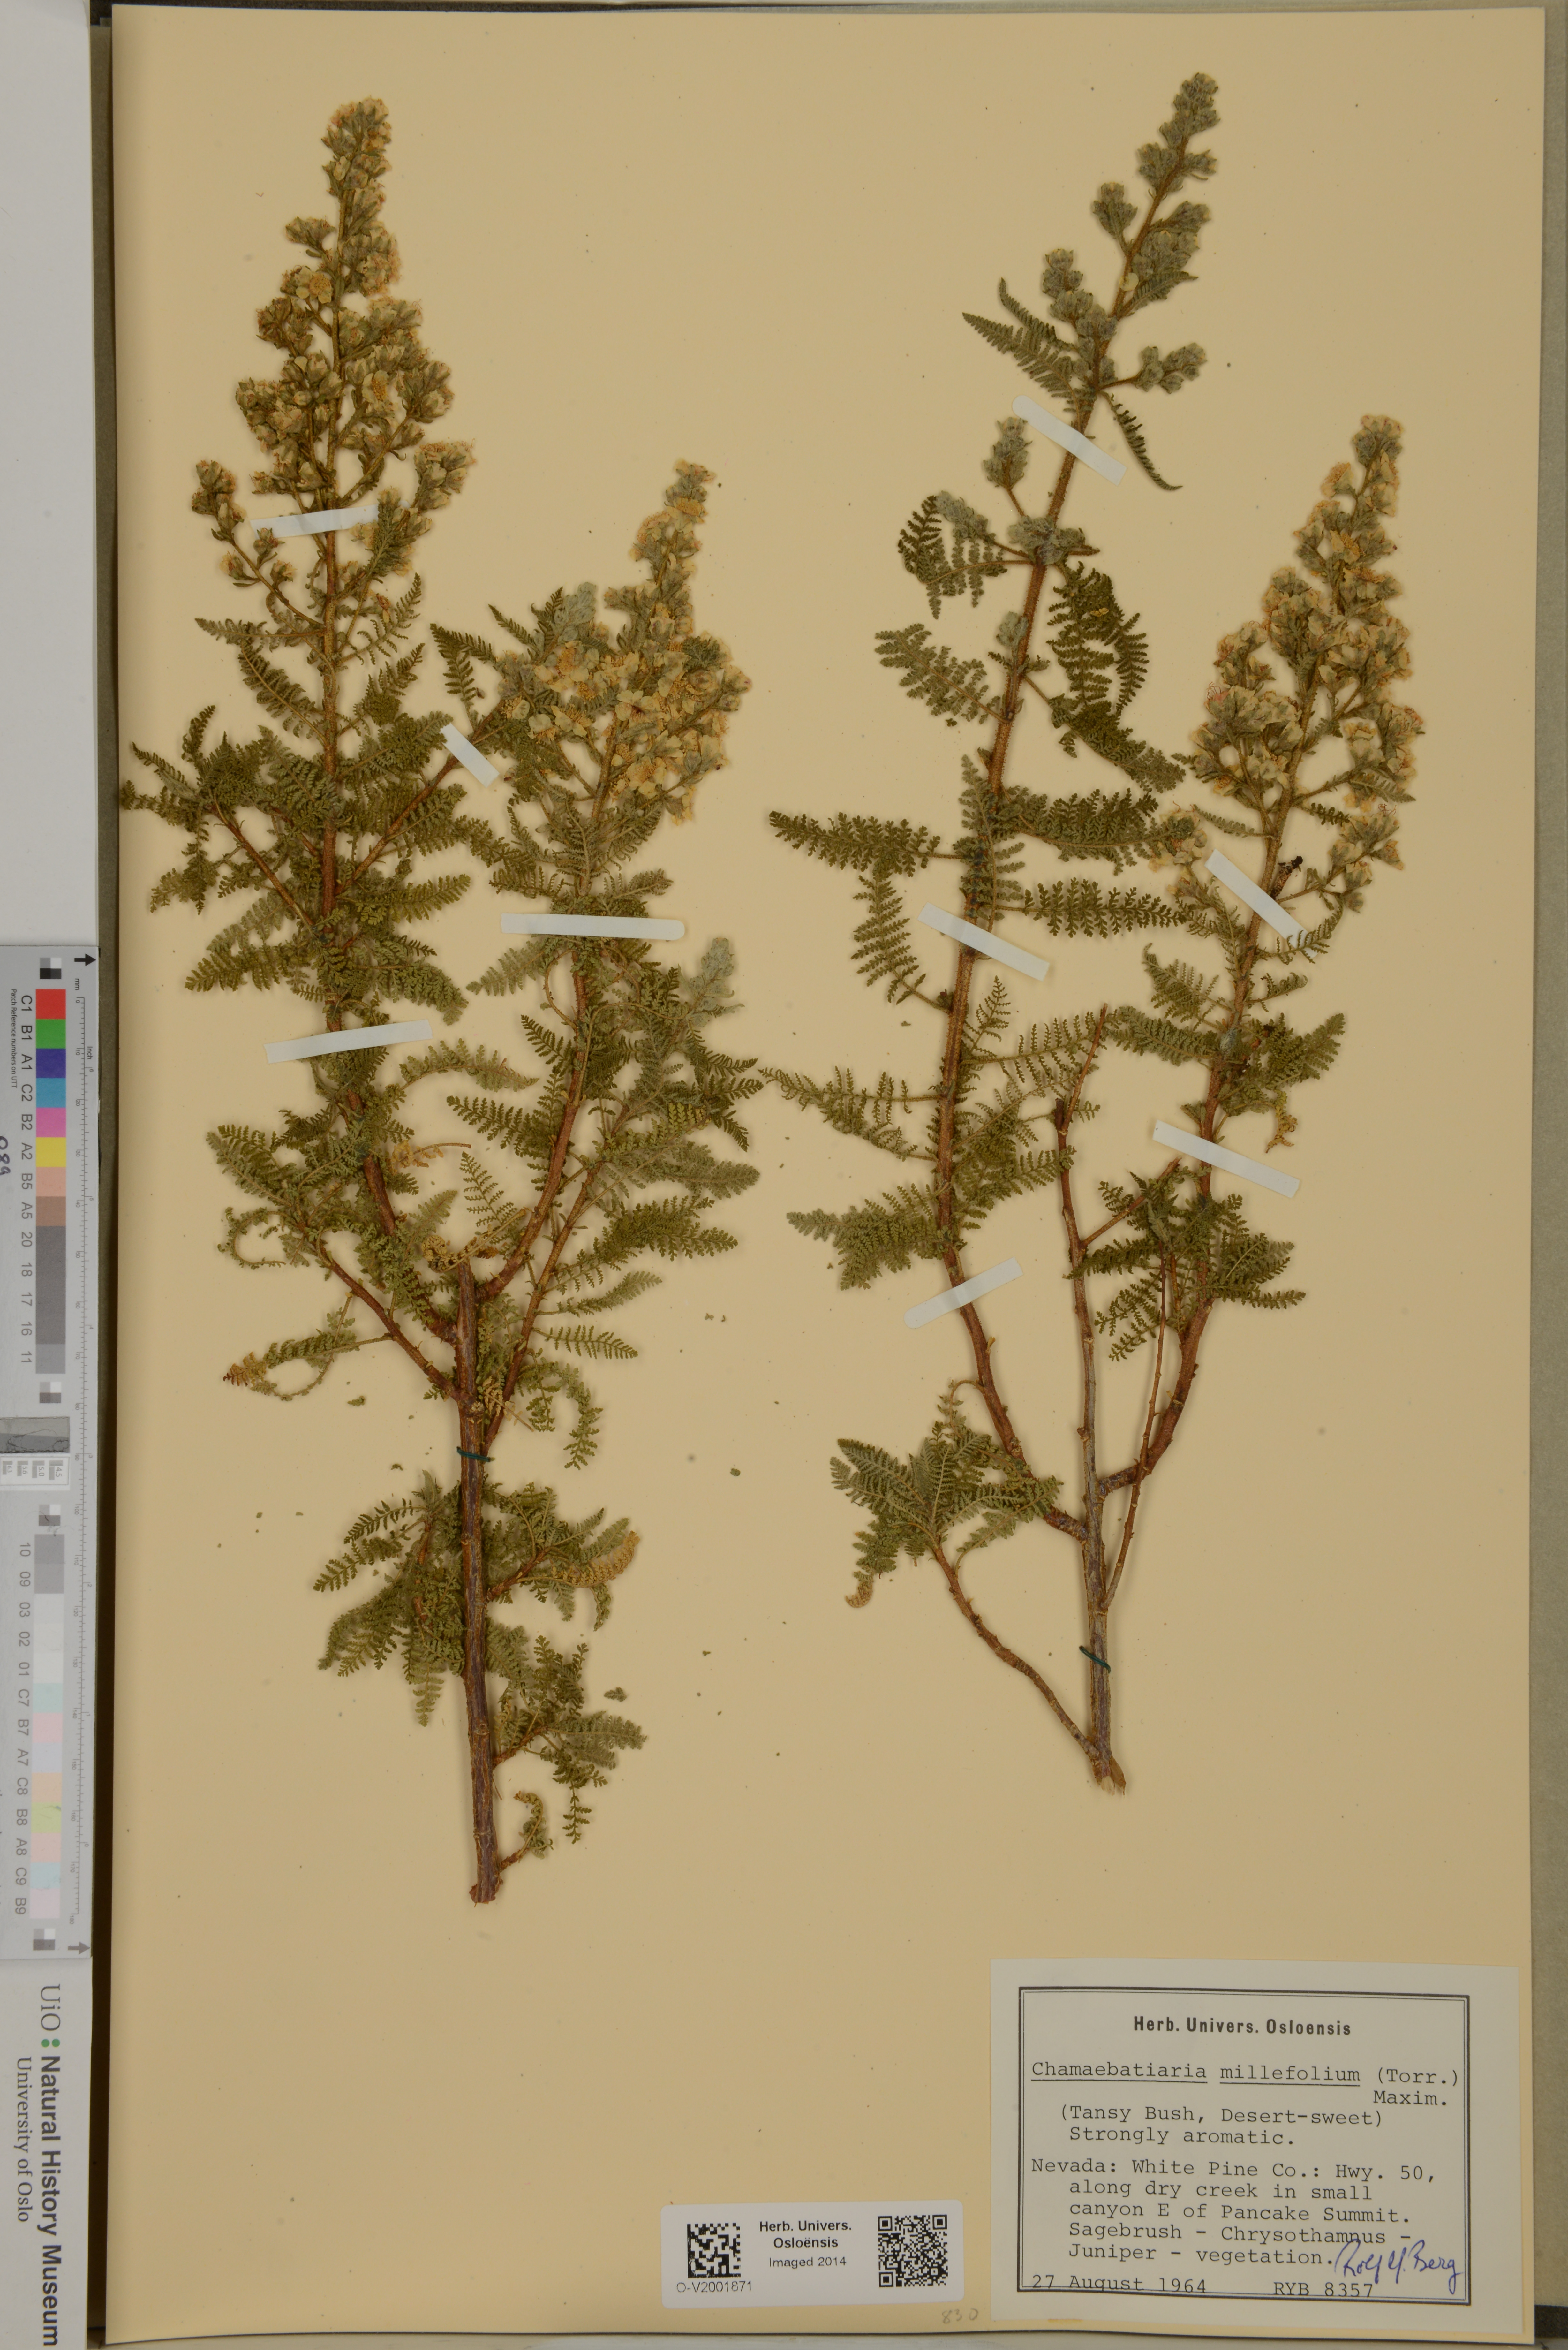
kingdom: Plantae
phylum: Tracheophyta
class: Magnoliopsida
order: Rosales
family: Rosaceae
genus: Chamaebatiaria
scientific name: Chamaebatiaria millefolium
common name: Fernbush
